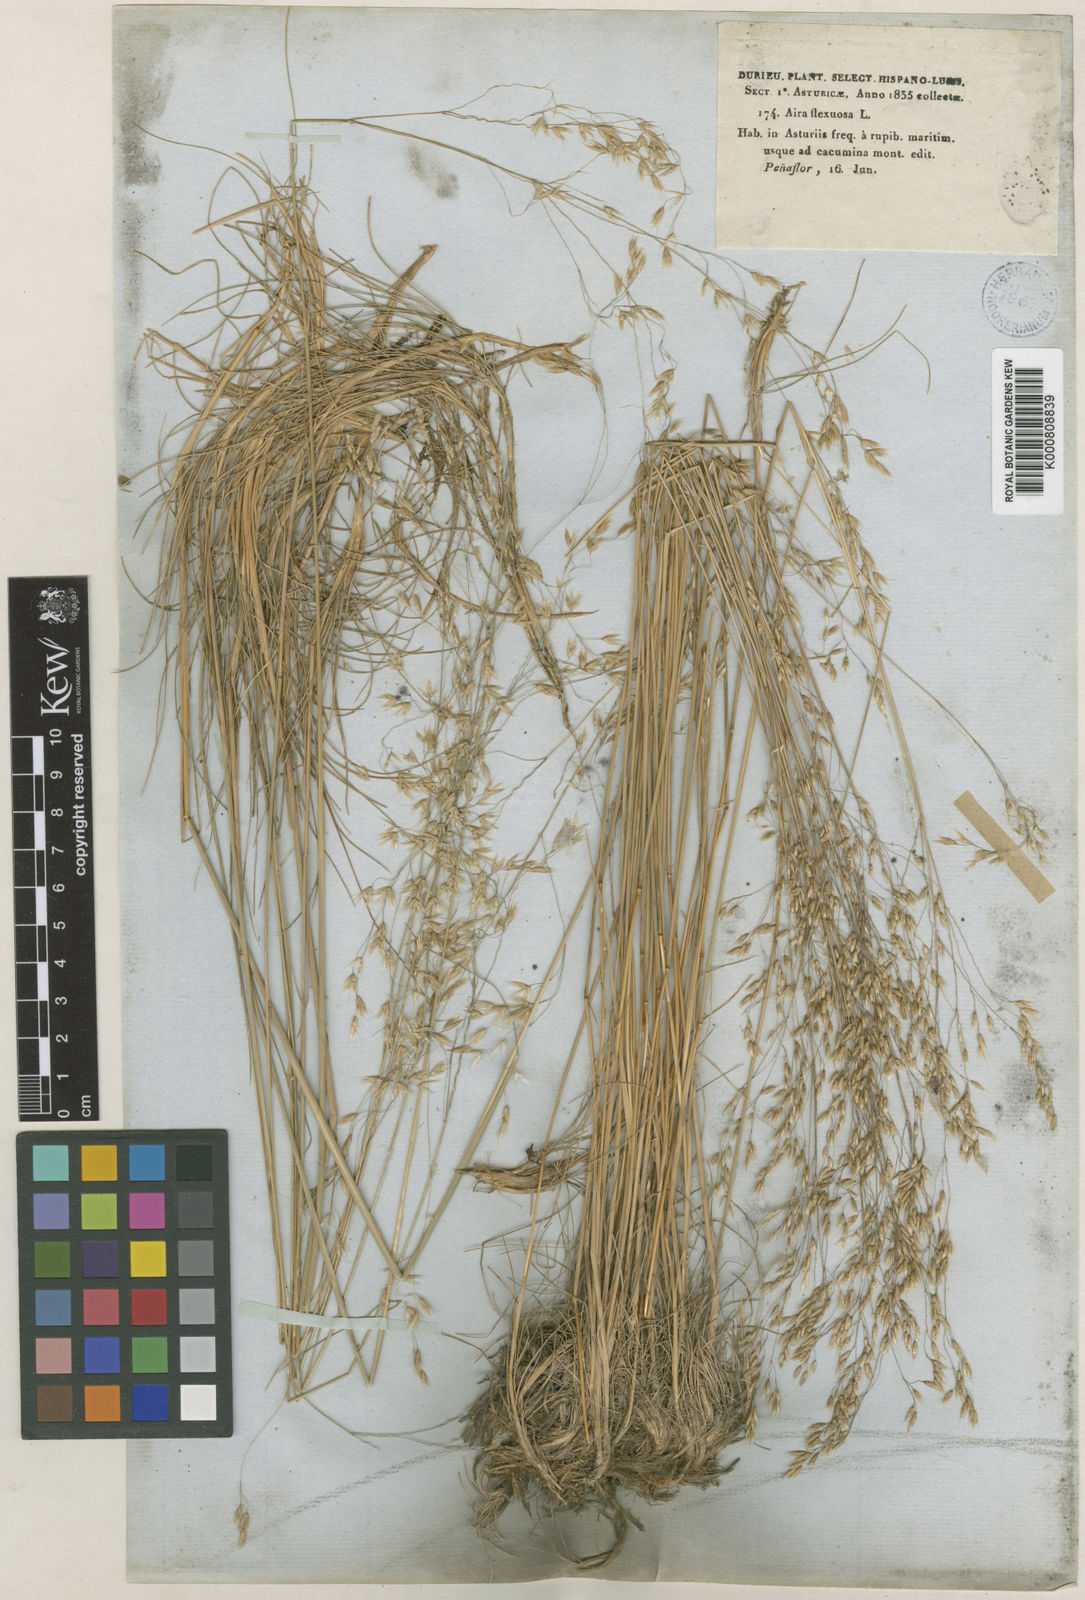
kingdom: Plantae
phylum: Tracheophyta
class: Liliopsida
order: Poales
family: Poaceae
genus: Avenella
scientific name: Avenella flexuosa
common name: Wavy hairgrass
